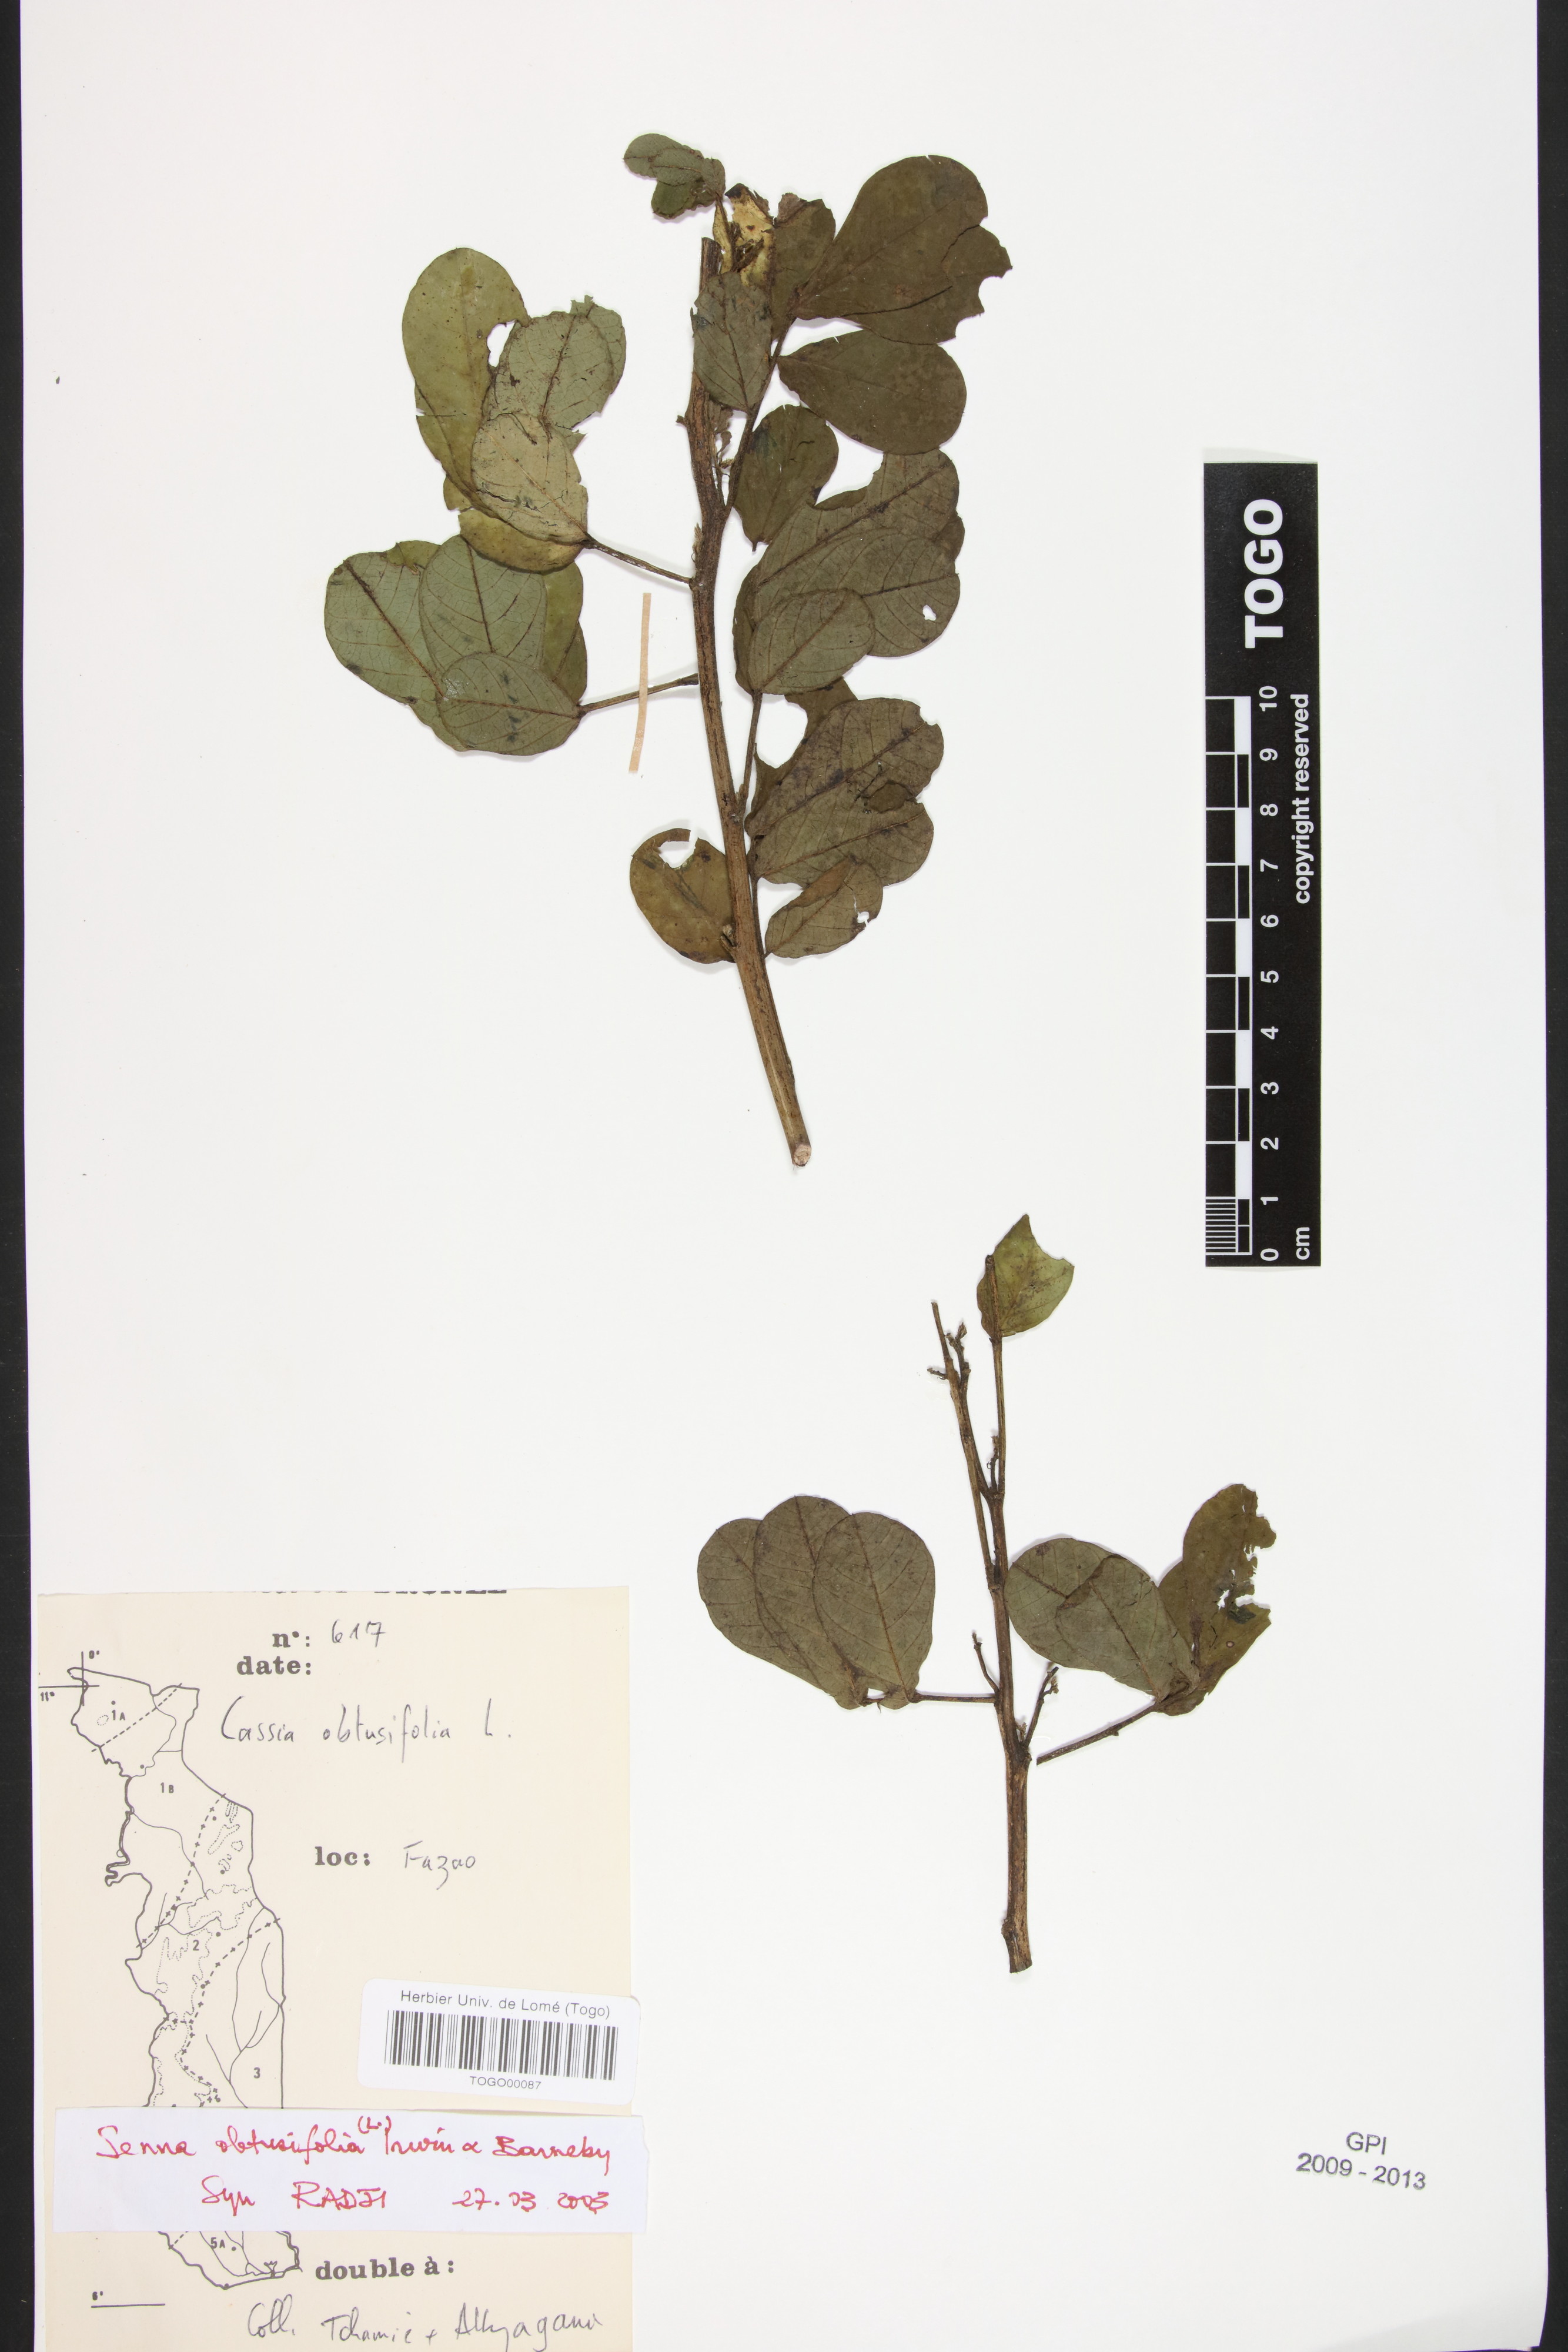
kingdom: Plantae
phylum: Tracheophyta
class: Magnoliopsida
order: Fabales
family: Fabaceae
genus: Senna
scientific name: Senna obtusifolia
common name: Java-bean
